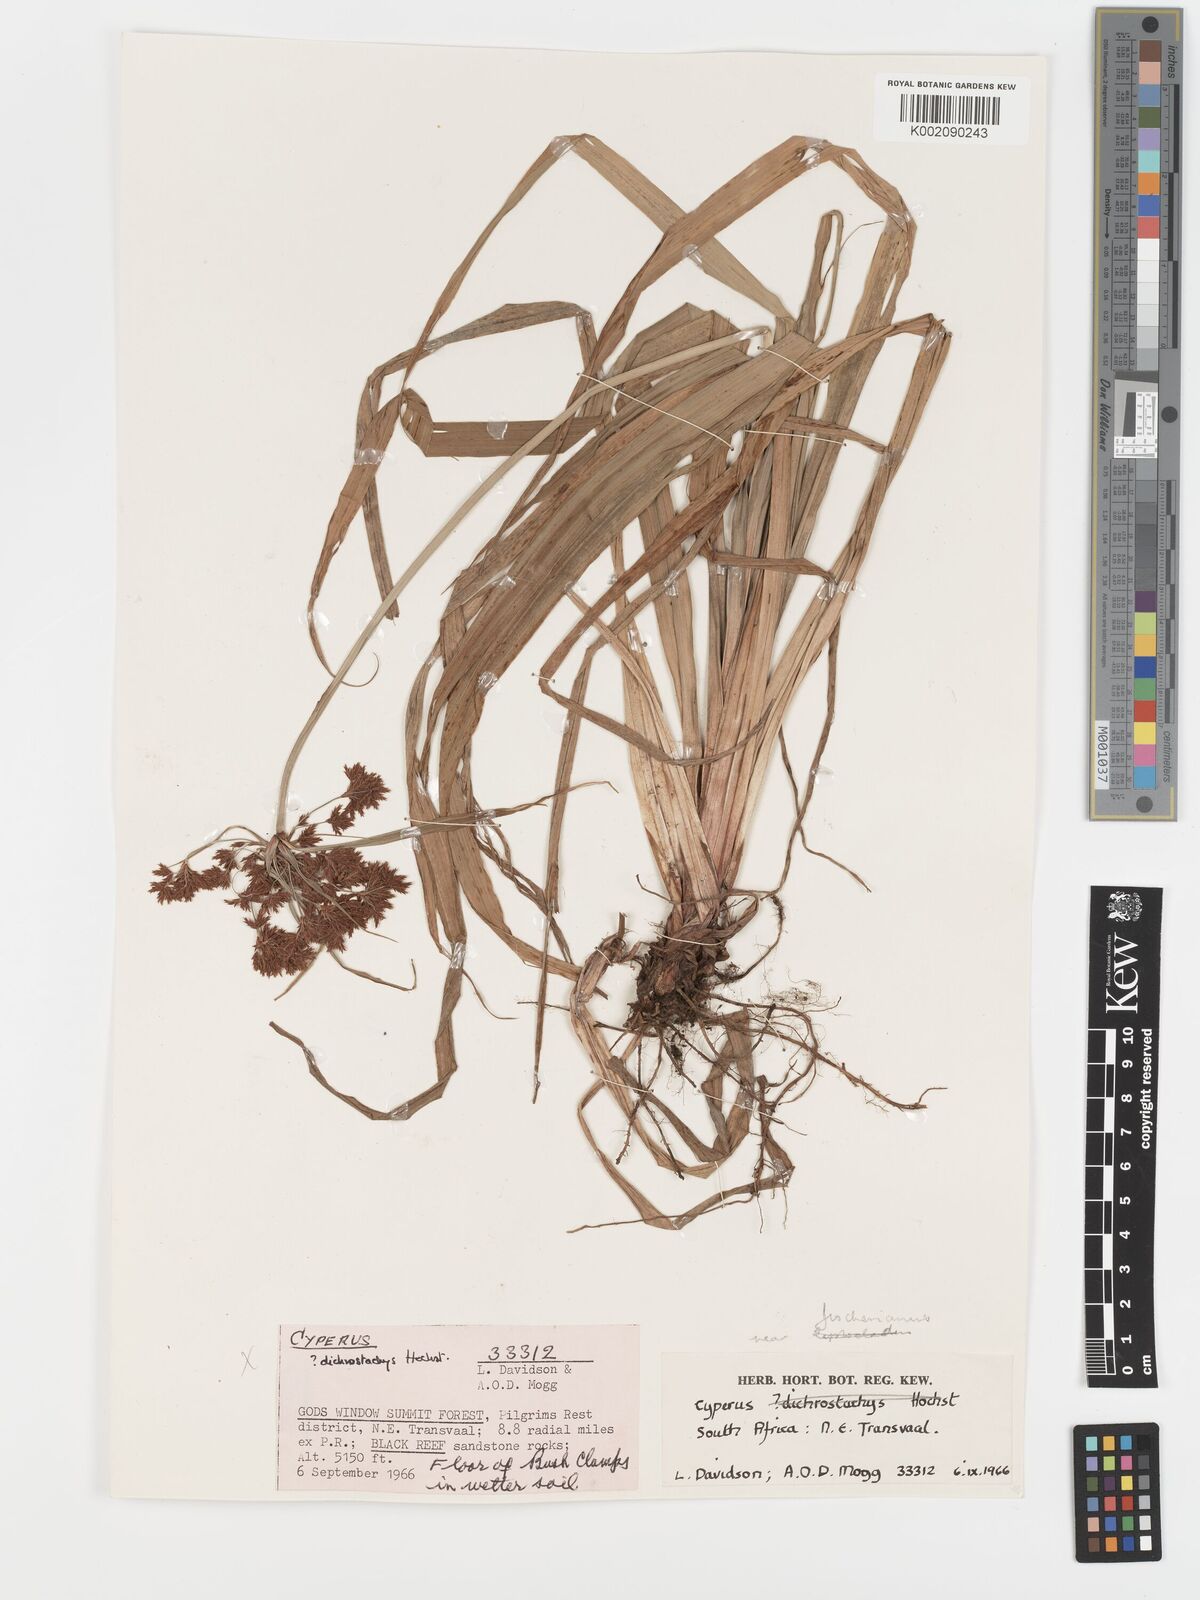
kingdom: Plantae
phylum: Tracheophyta
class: Liliopsida
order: Poales
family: Cyperaceae
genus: Cyperus
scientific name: Cyperus leptocladus
